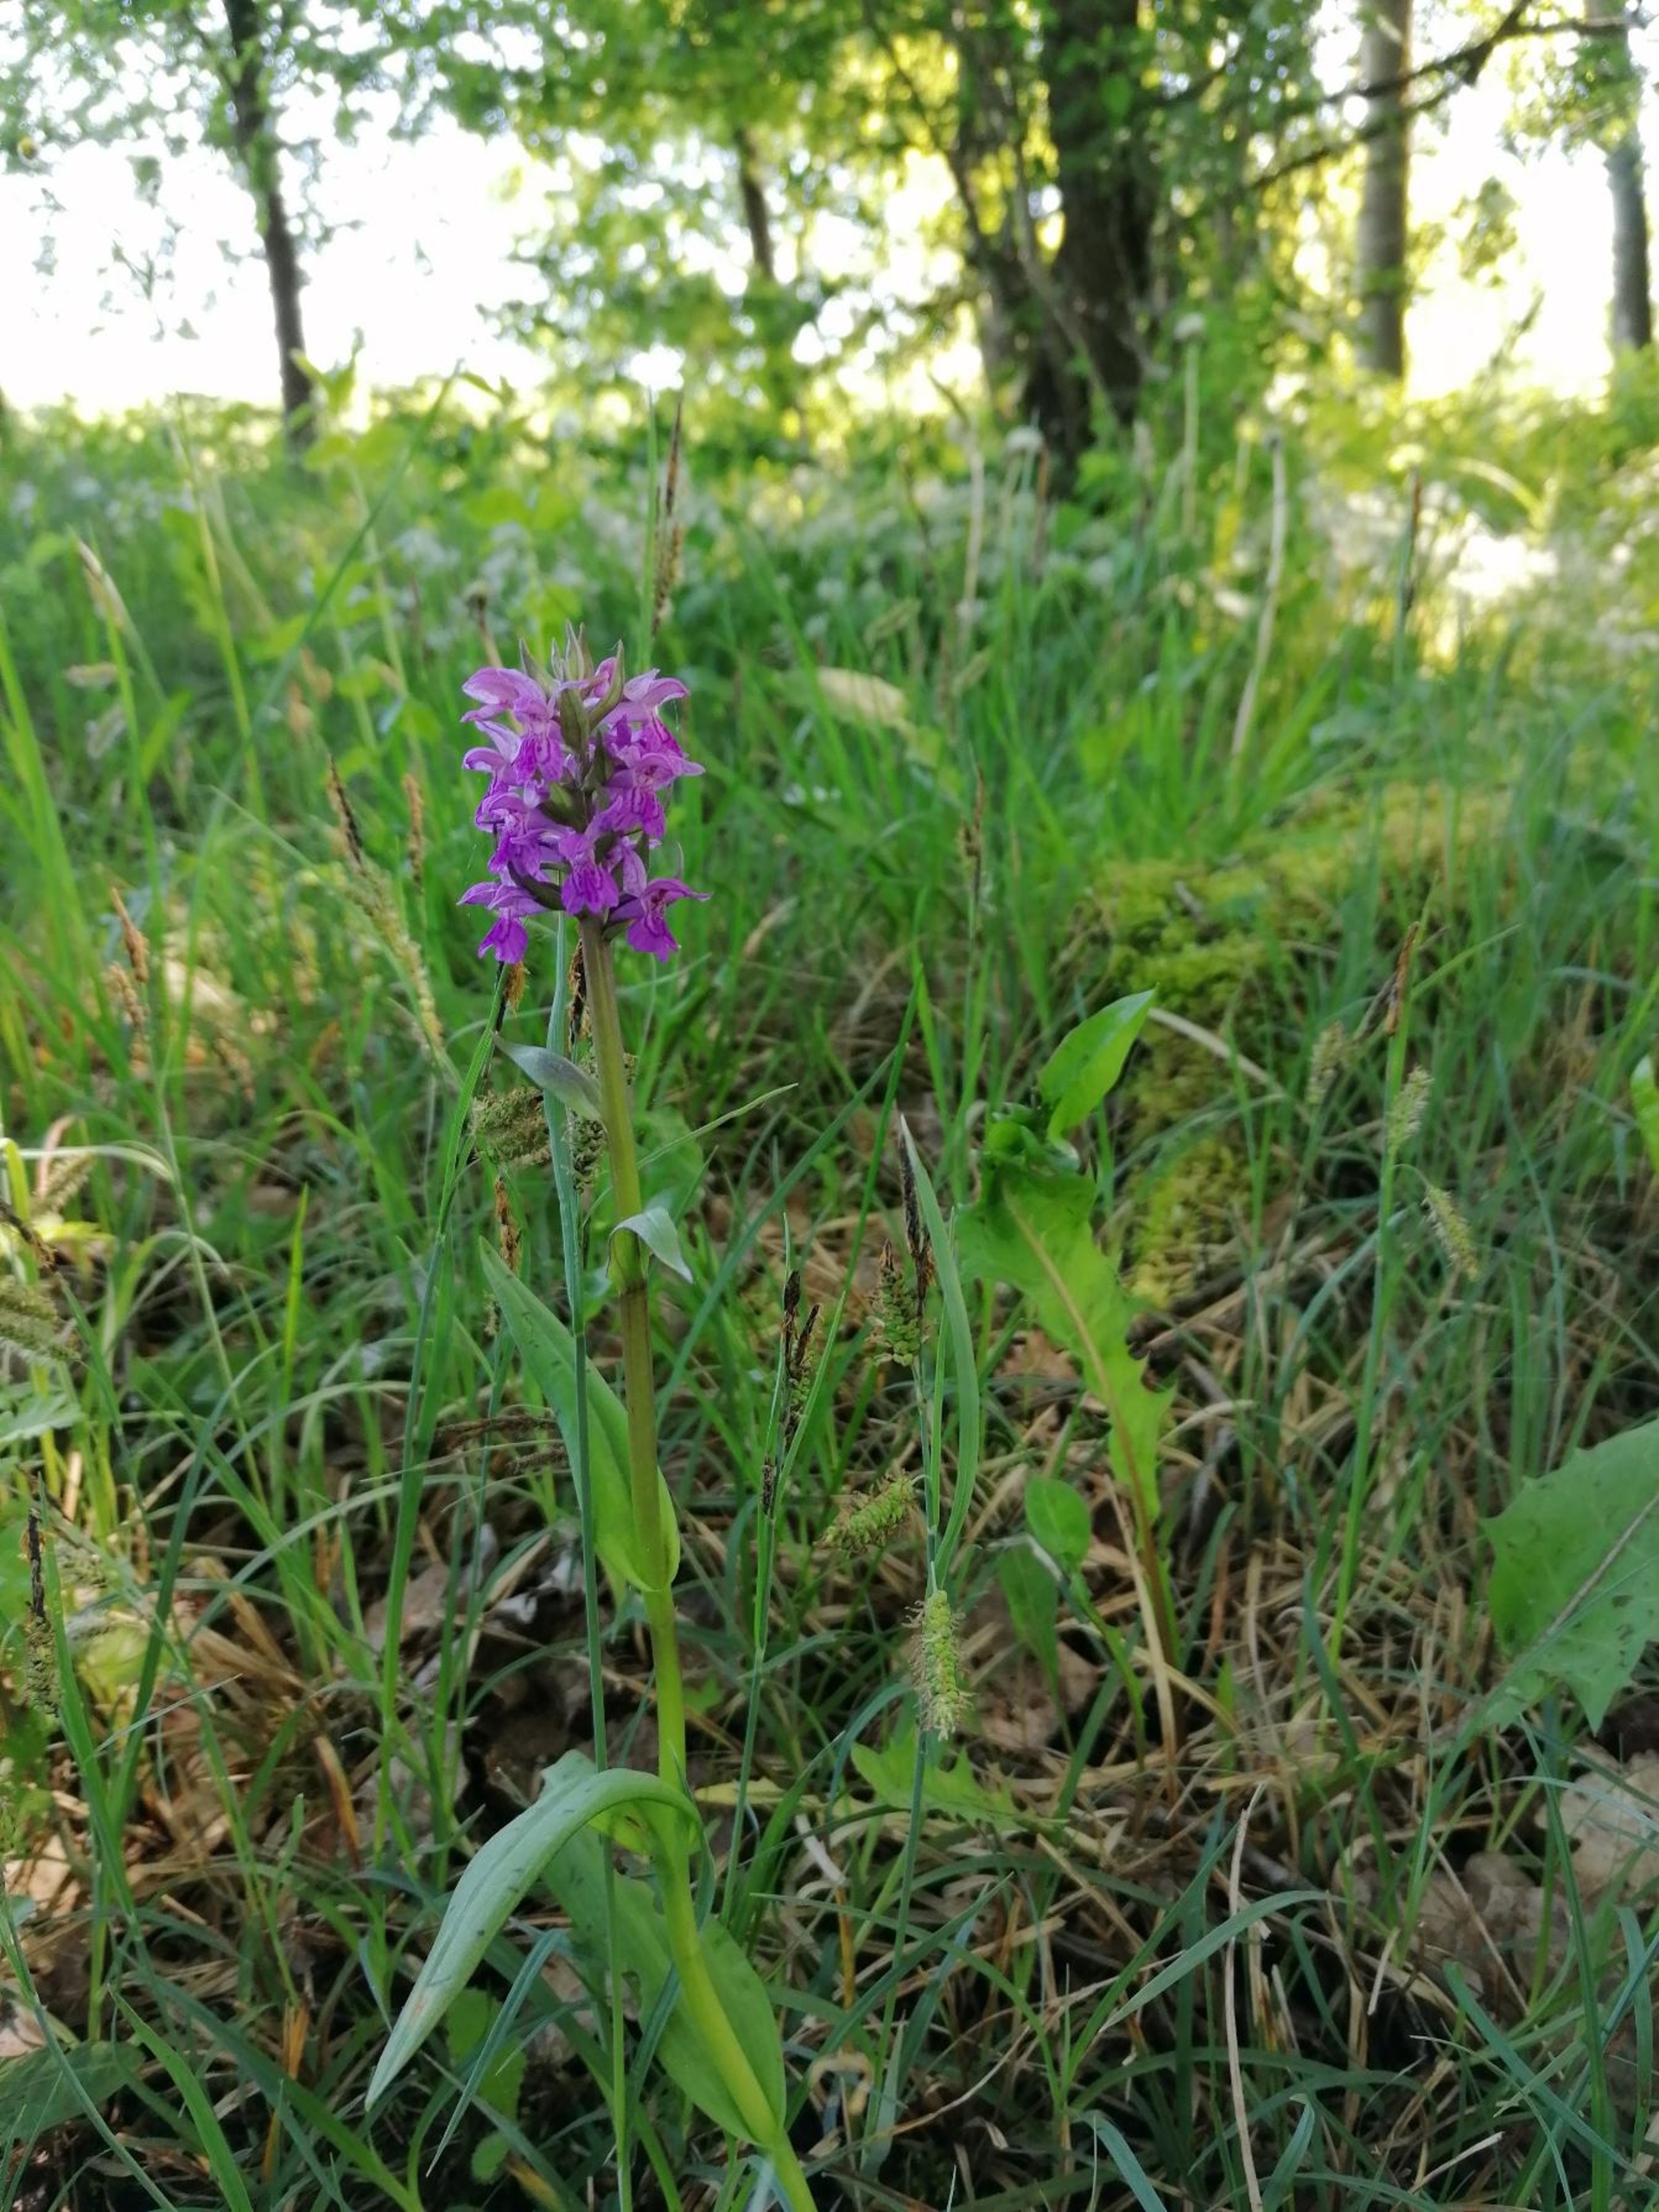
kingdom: Plantae
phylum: Tracheophyta
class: Liliopsida
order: Asparagales
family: Orchidaceae
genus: Dactylorhiza
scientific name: Dactylorhiza majalis
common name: Maj-gøgeurt
